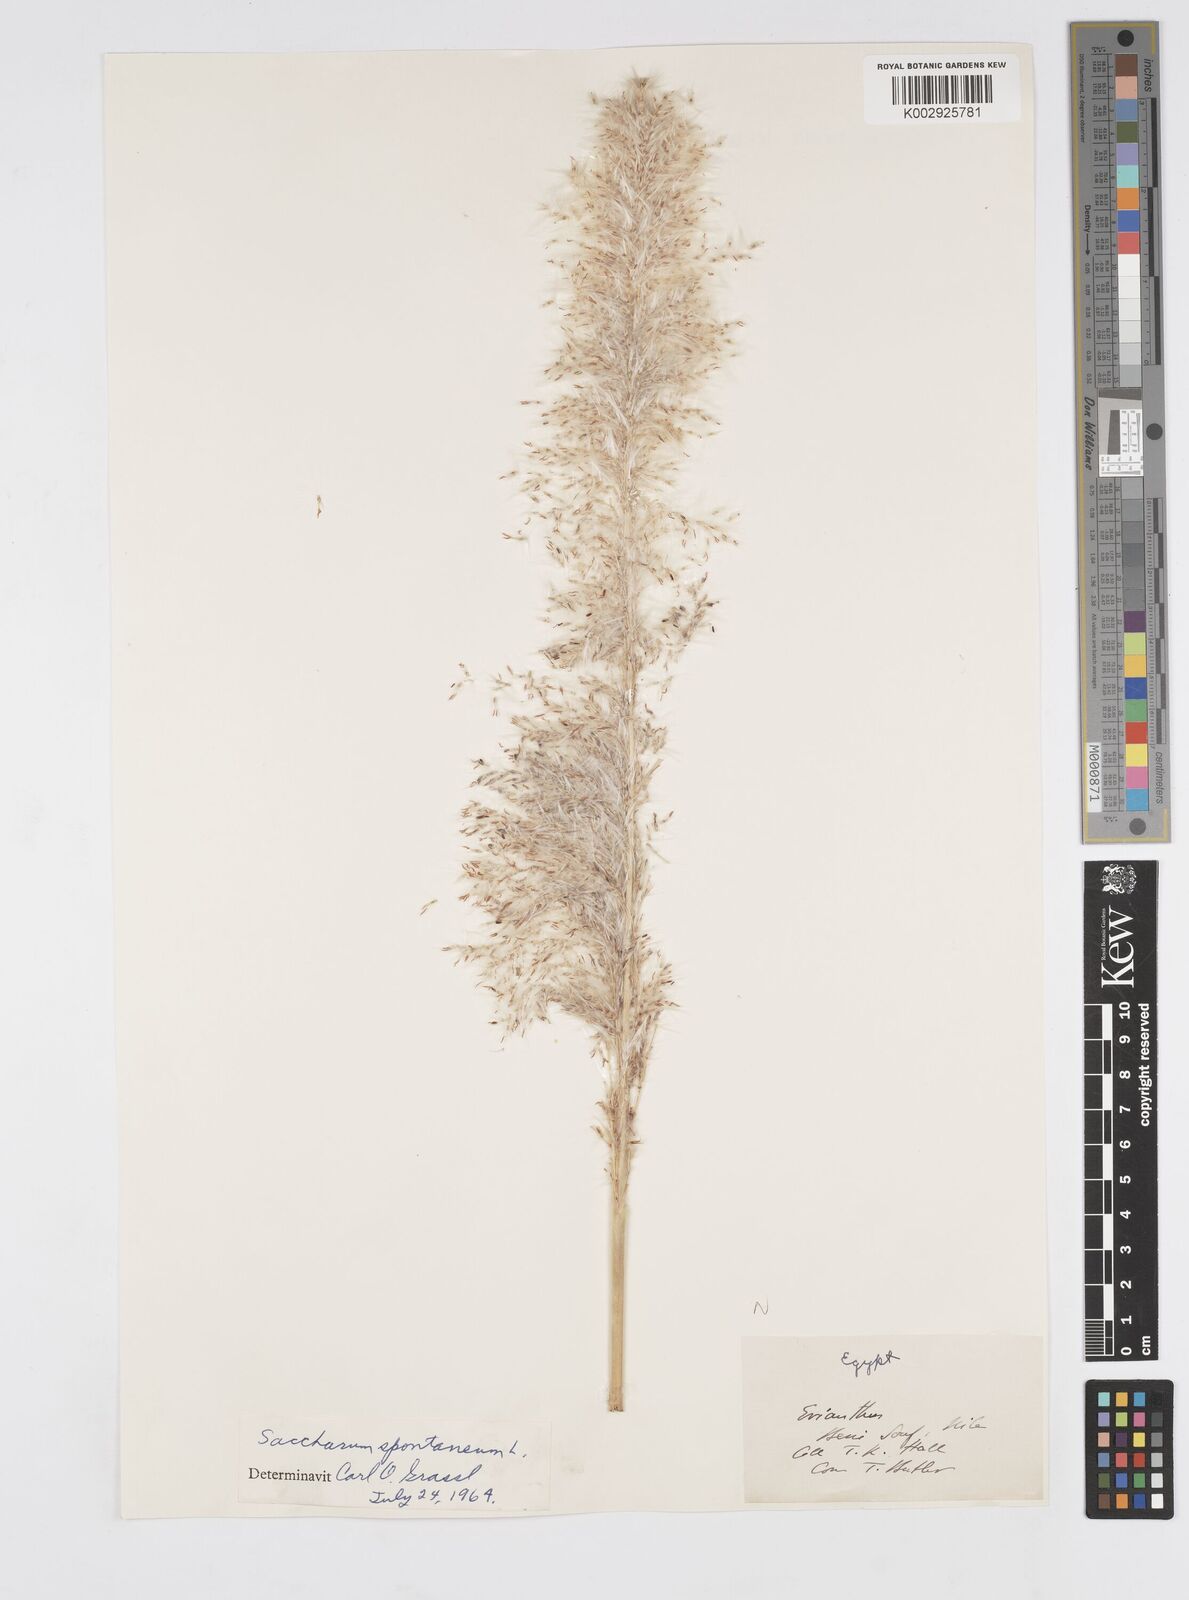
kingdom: Plantae
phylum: Tracheophyta
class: Liliopsida
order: Poales
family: Poaceae
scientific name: Poaceae
